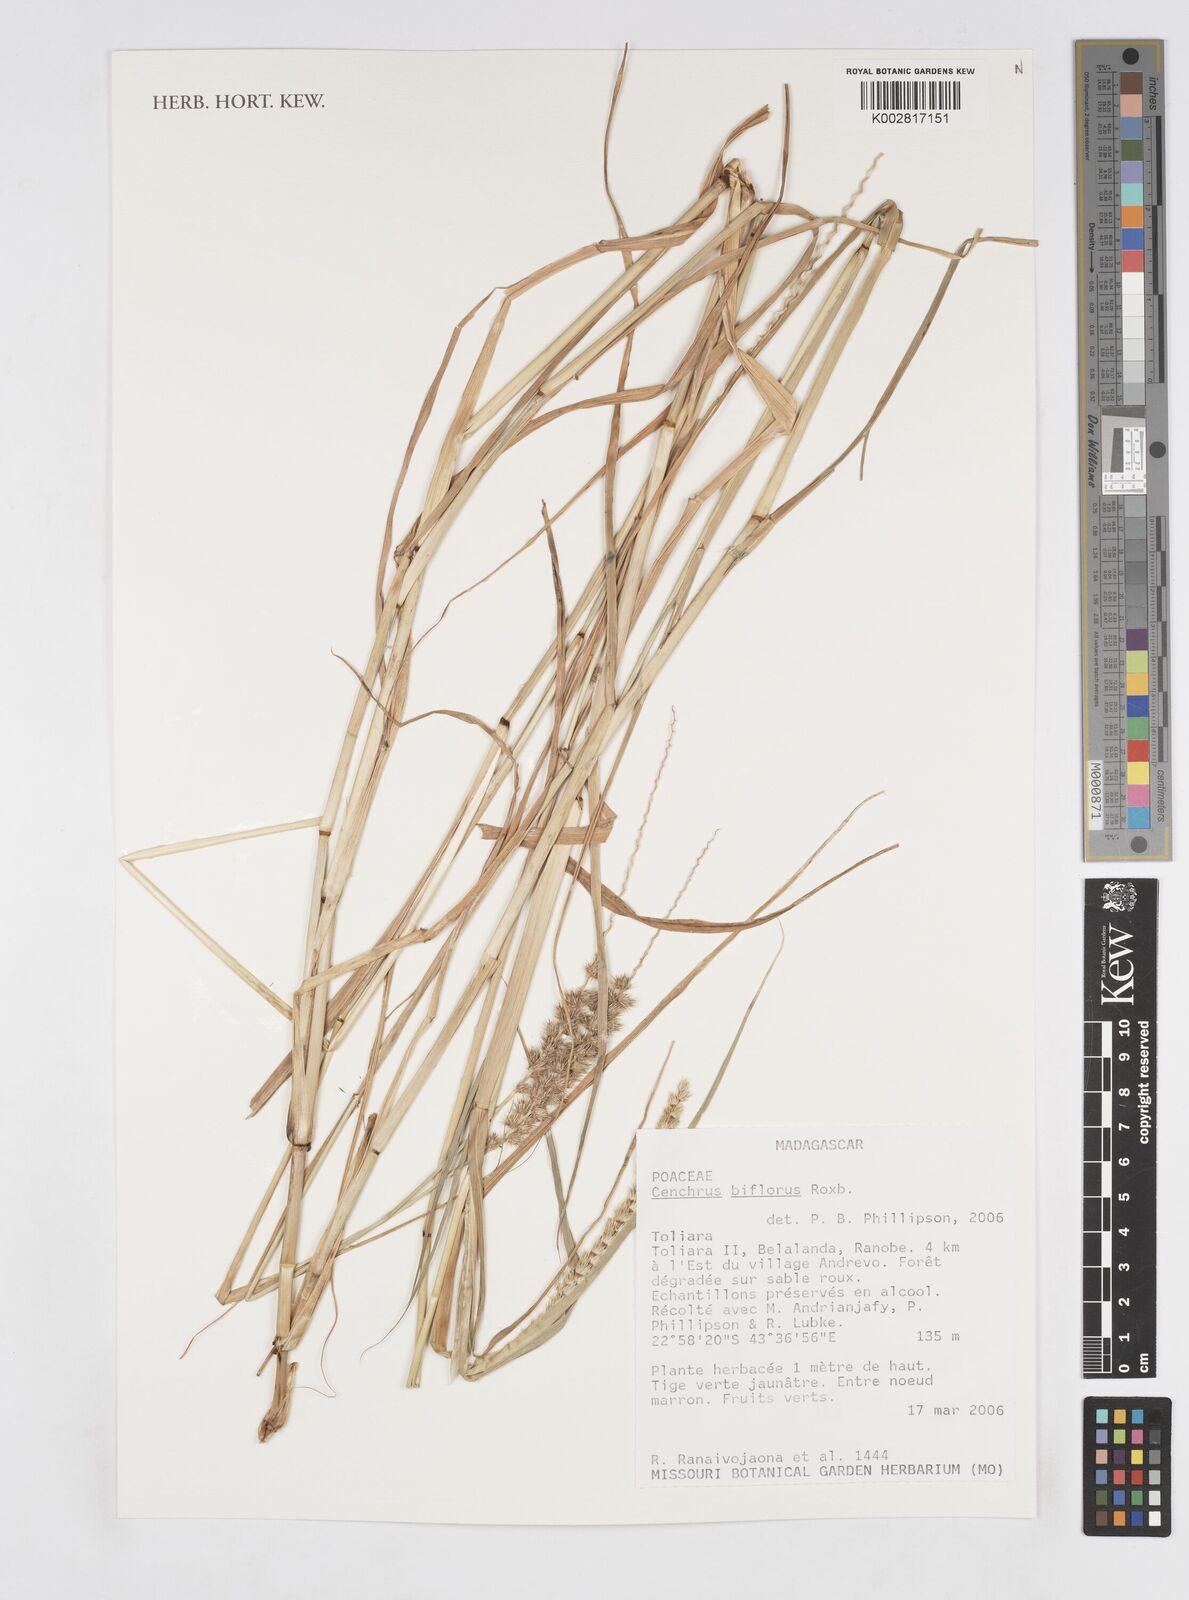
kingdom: Plantae
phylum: Tracheophyta
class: Liliopsida
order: Poales
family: Poaceae
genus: Cenchrus
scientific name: Cenchrus biflorus
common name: Indian sandbur
